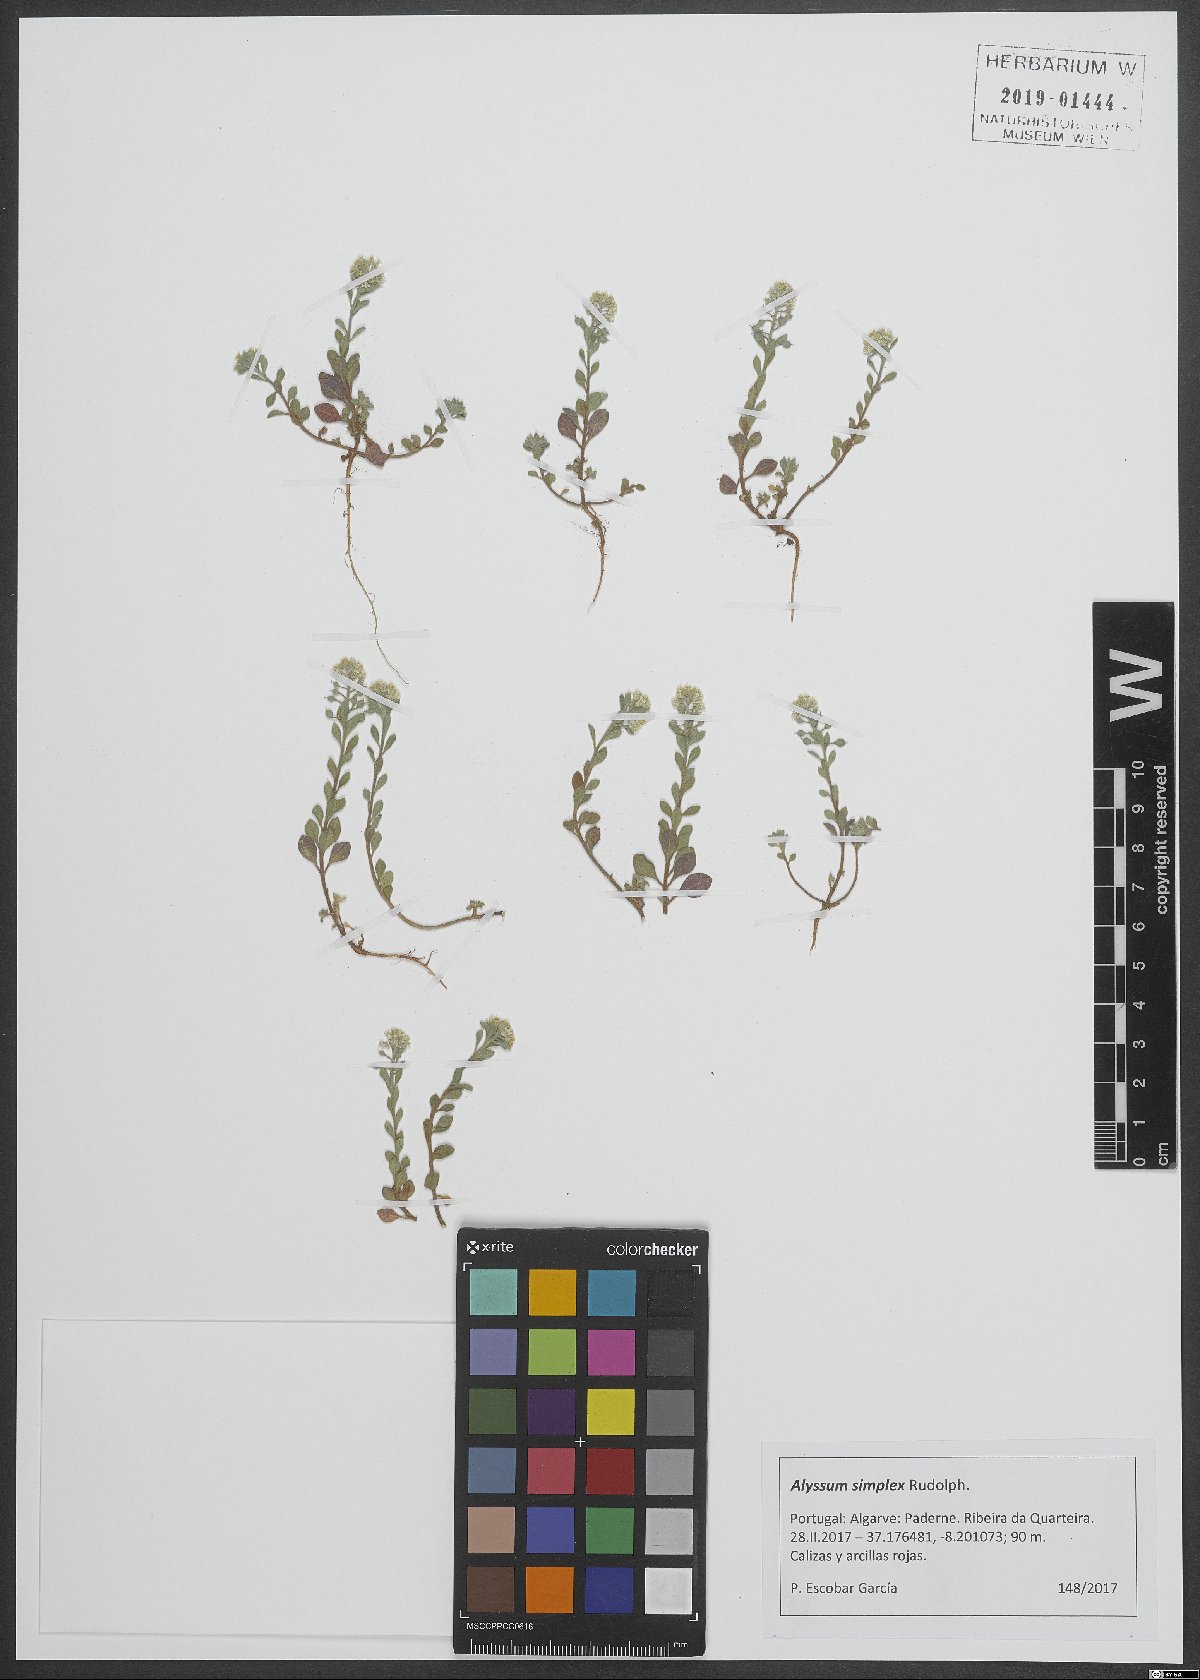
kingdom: Plantae
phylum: Tracheophyta
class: Magnoliopsida
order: Brassicales
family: Brassicaceae
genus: Alyssum
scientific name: Alyssum simplex
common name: Alyssum
